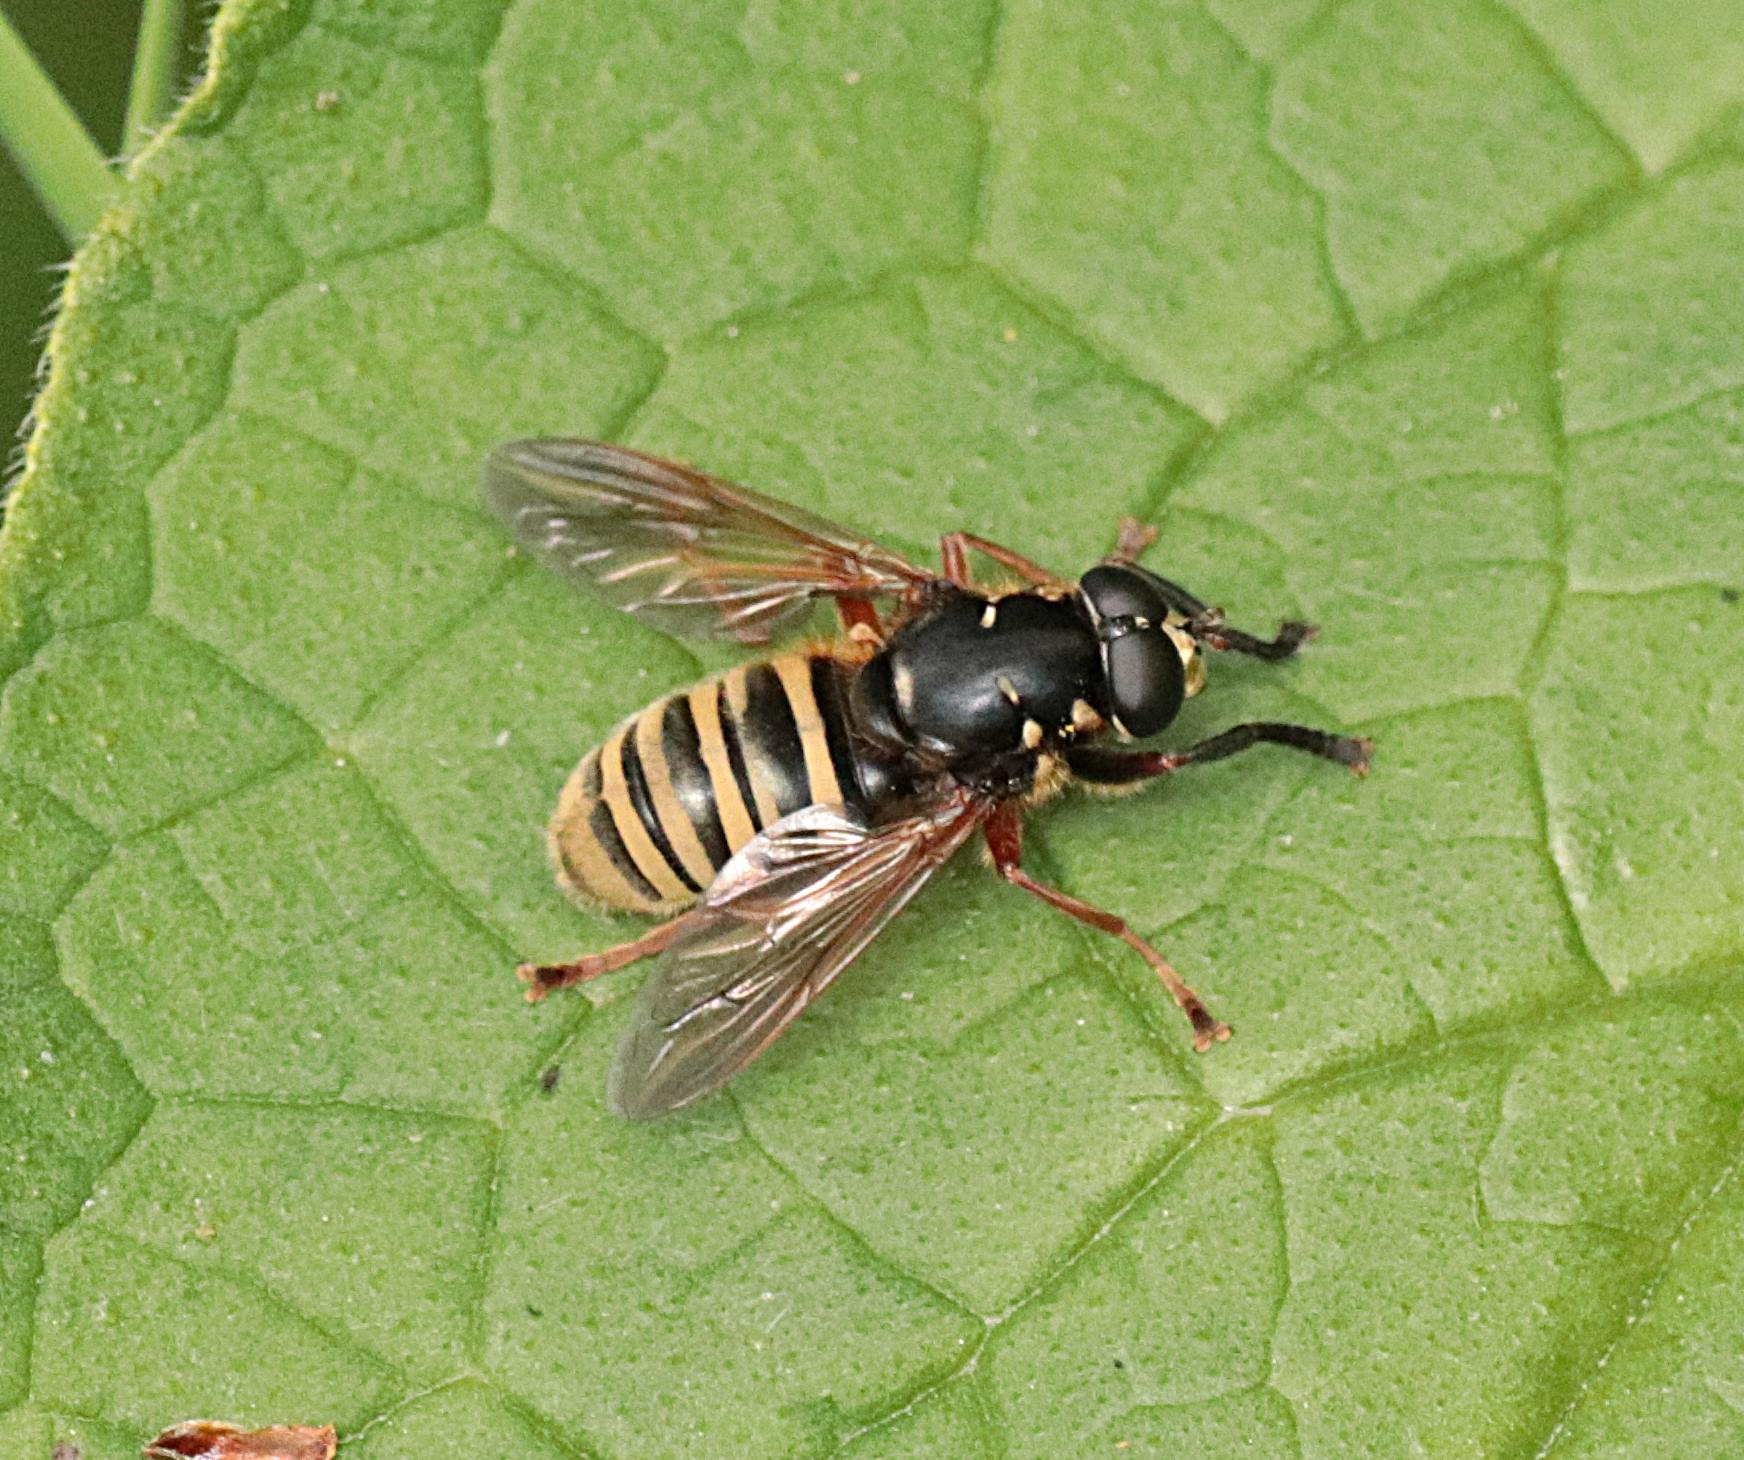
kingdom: Animalia
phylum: Arthropoda
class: Insecta
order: Diptera
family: Syrphidae
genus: Temnostoma
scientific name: Temnostoma apiforme
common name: Bredbåndet vedsvirreflue
